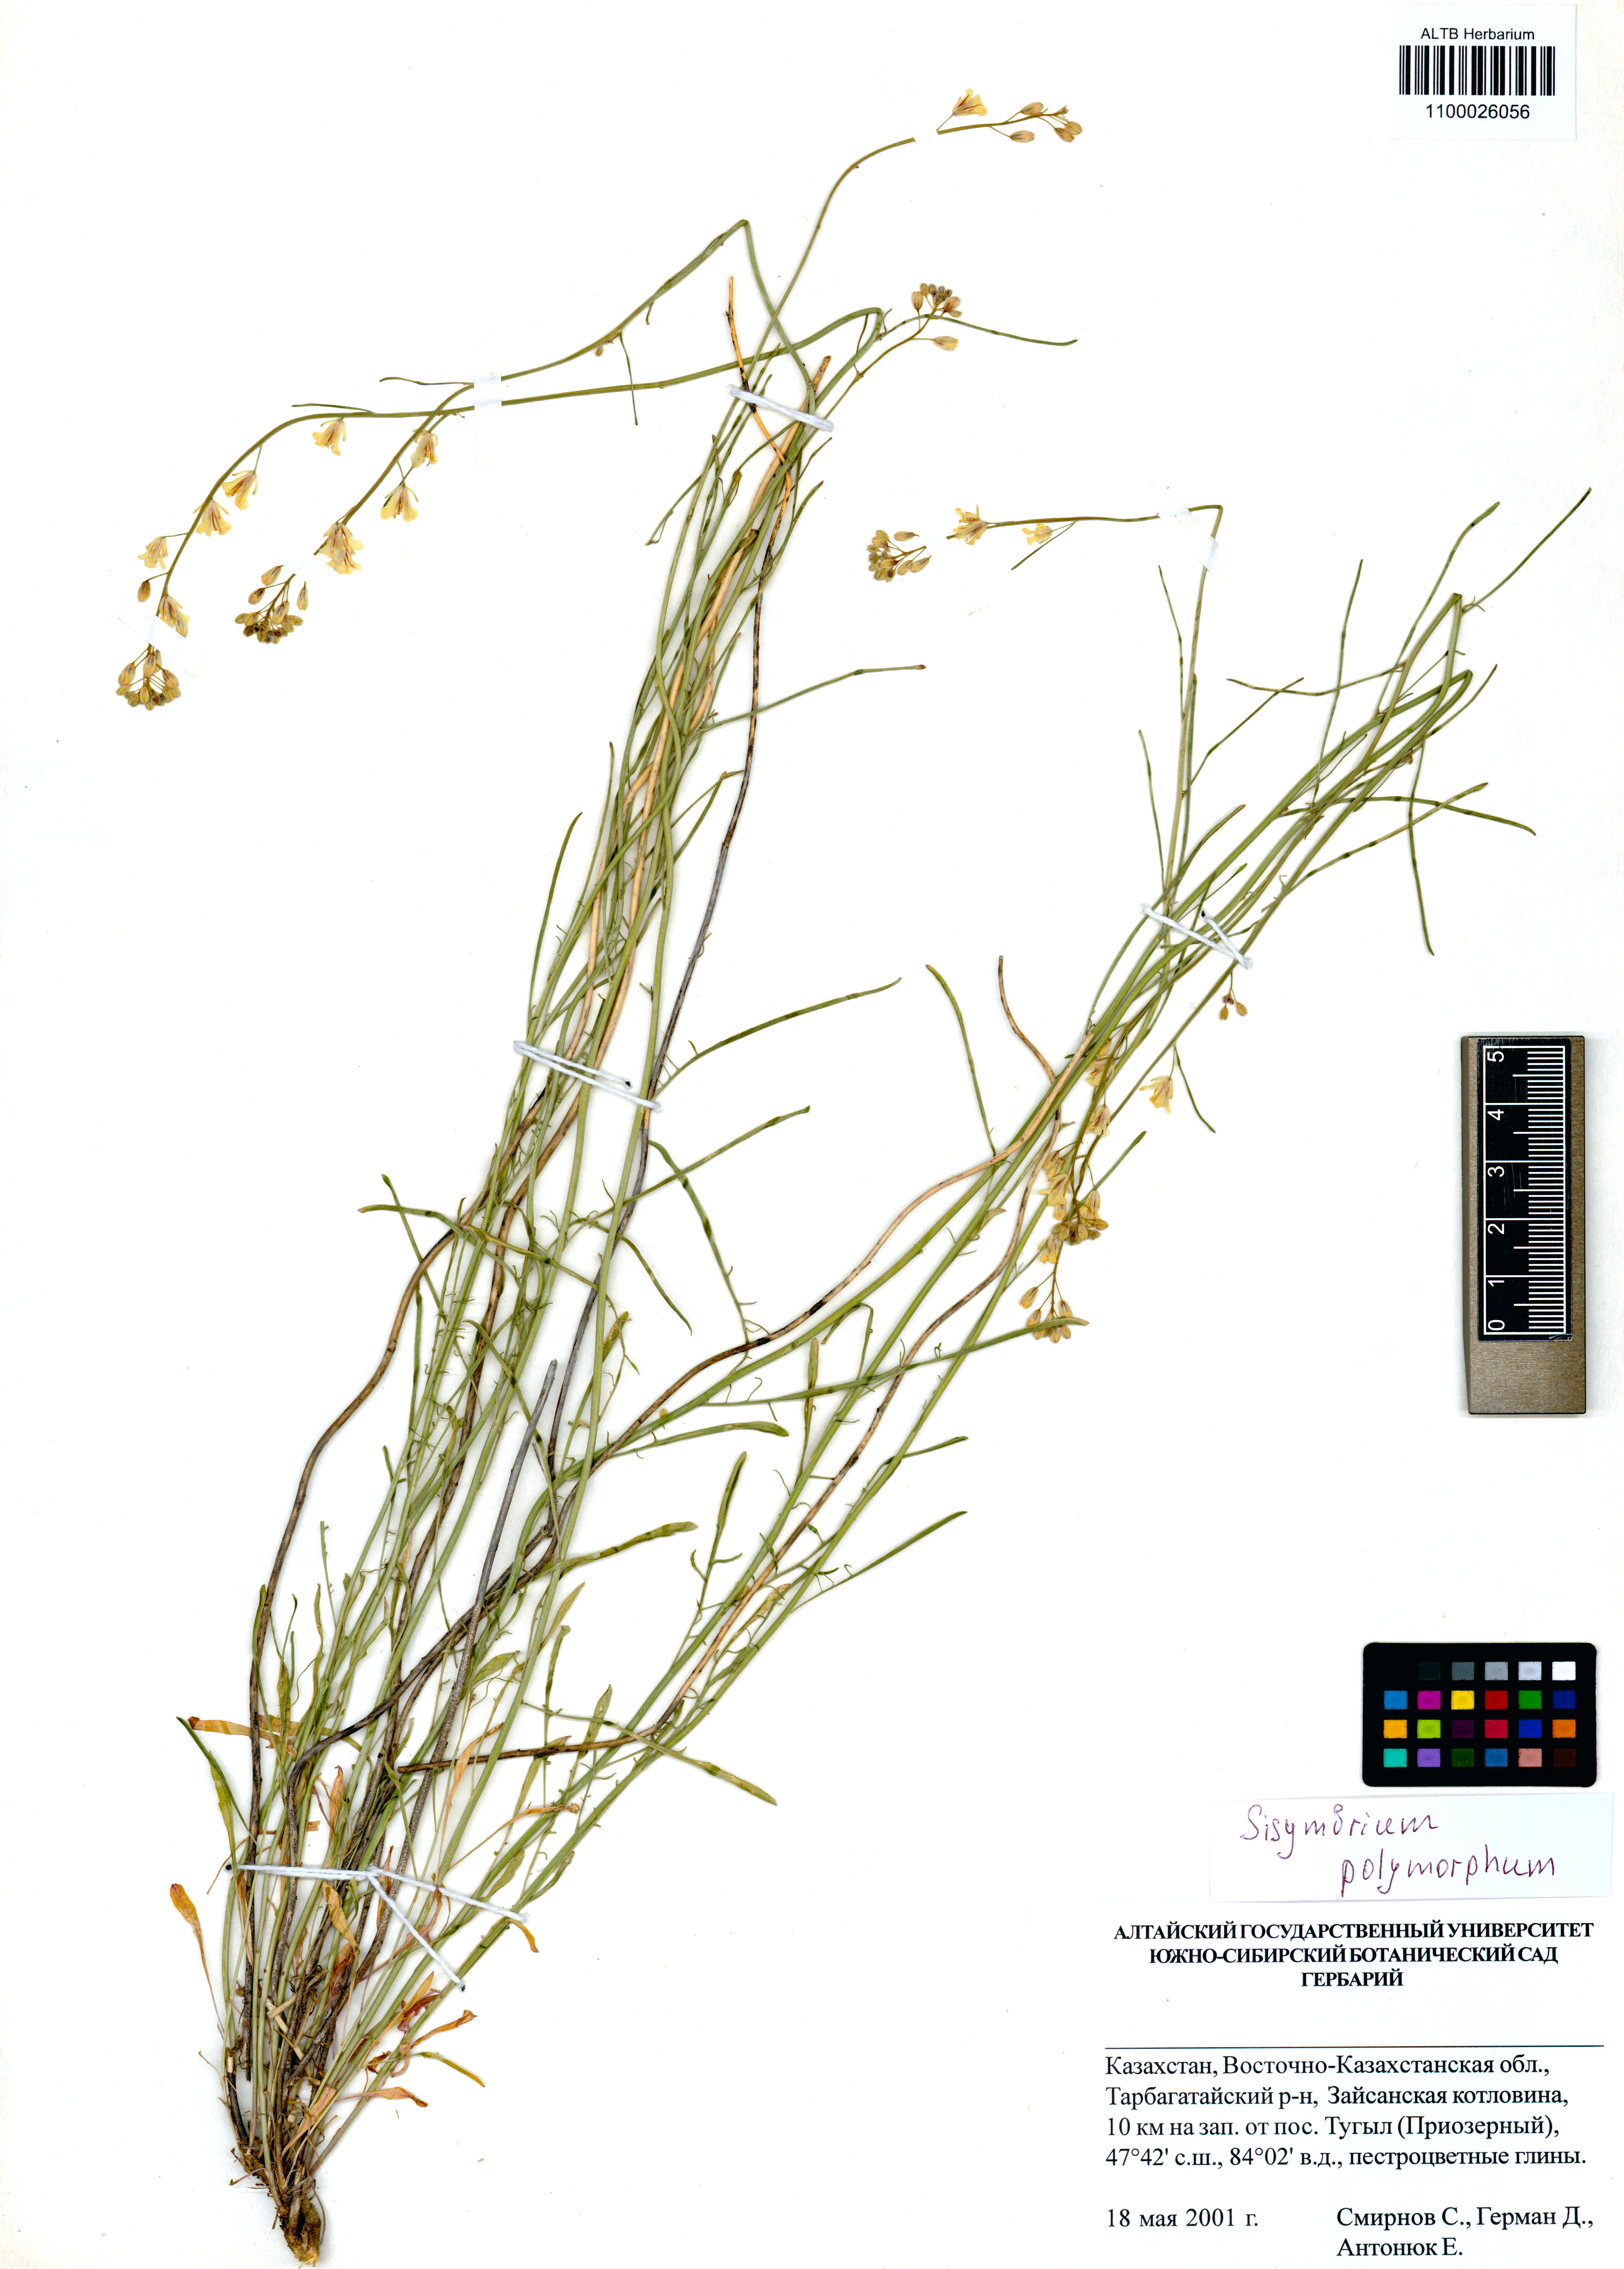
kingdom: Plantae
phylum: Tracheophyta
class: Magnoliopsida
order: Brassicales
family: Brassicaceae
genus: Sisymbrium
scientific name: Sisymbrium polymorphum
